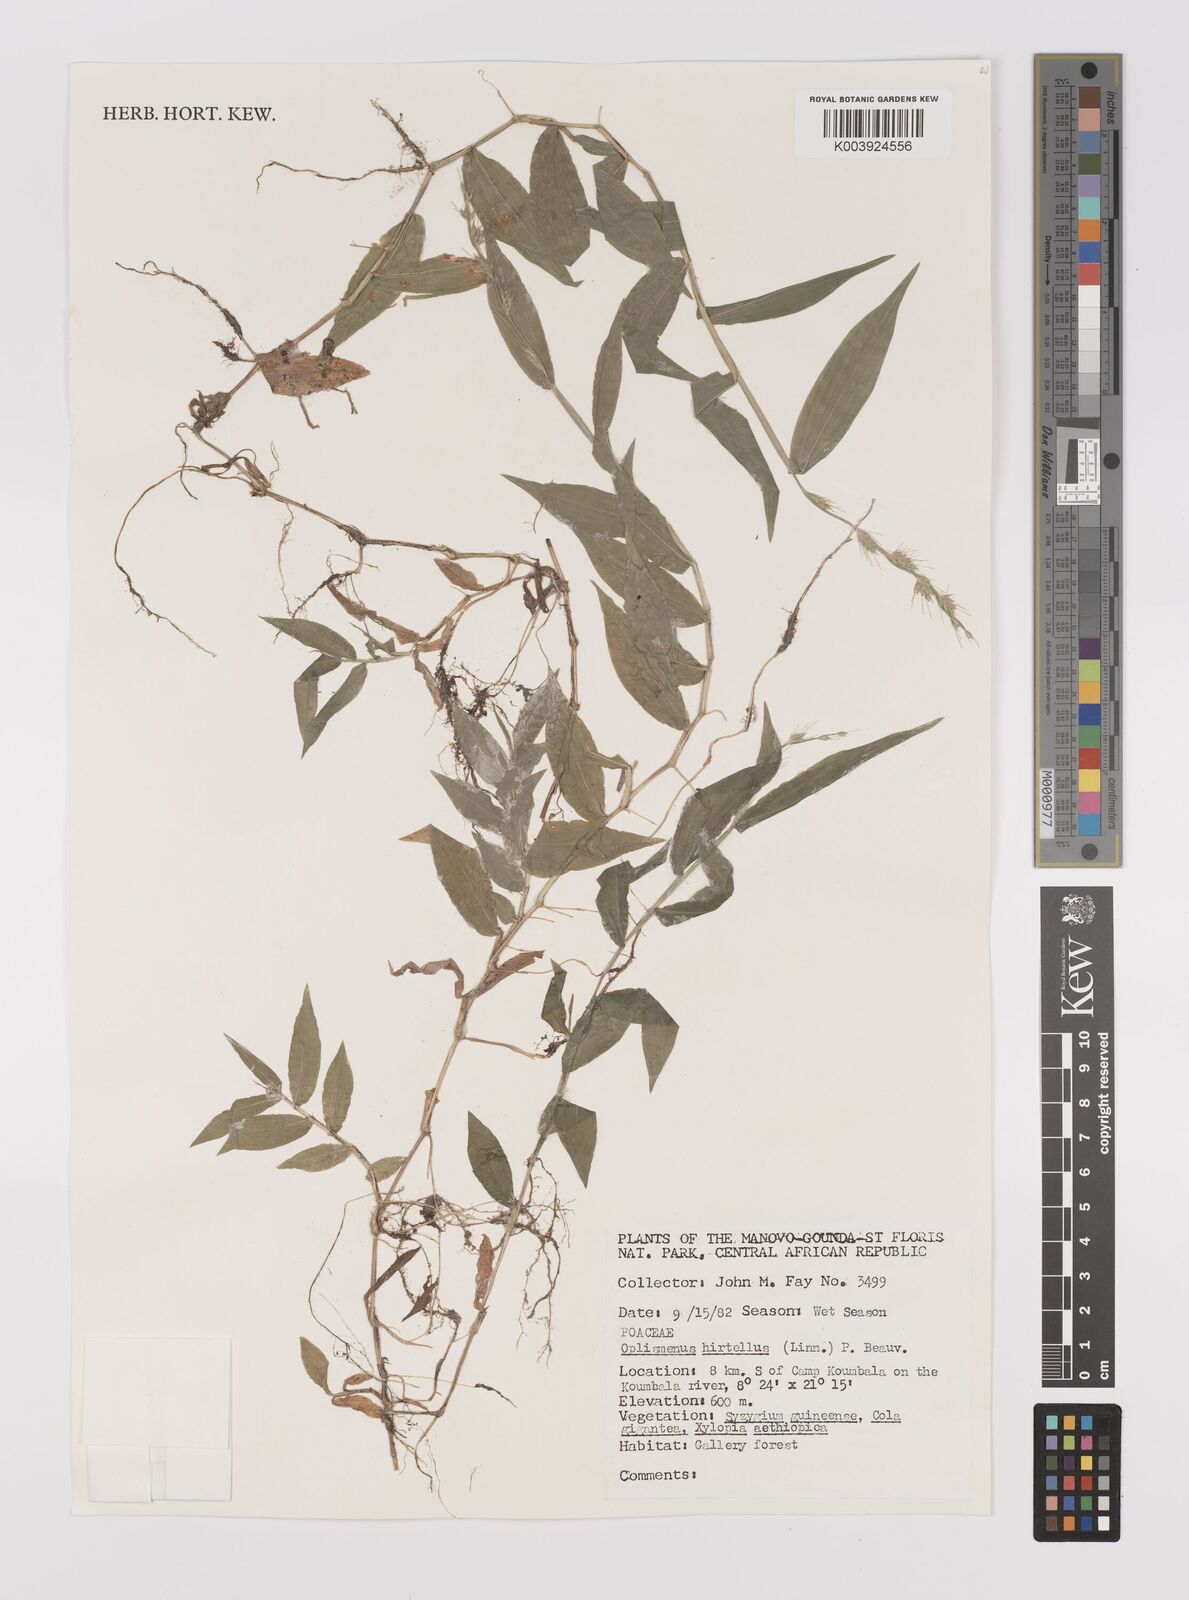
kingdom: Plantae
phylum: Tracheophyta
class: Liliopsida
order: Poales
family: Poaceae
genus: Oplismenus
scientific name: Oplismenus hirtellus
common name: Basketgrass
